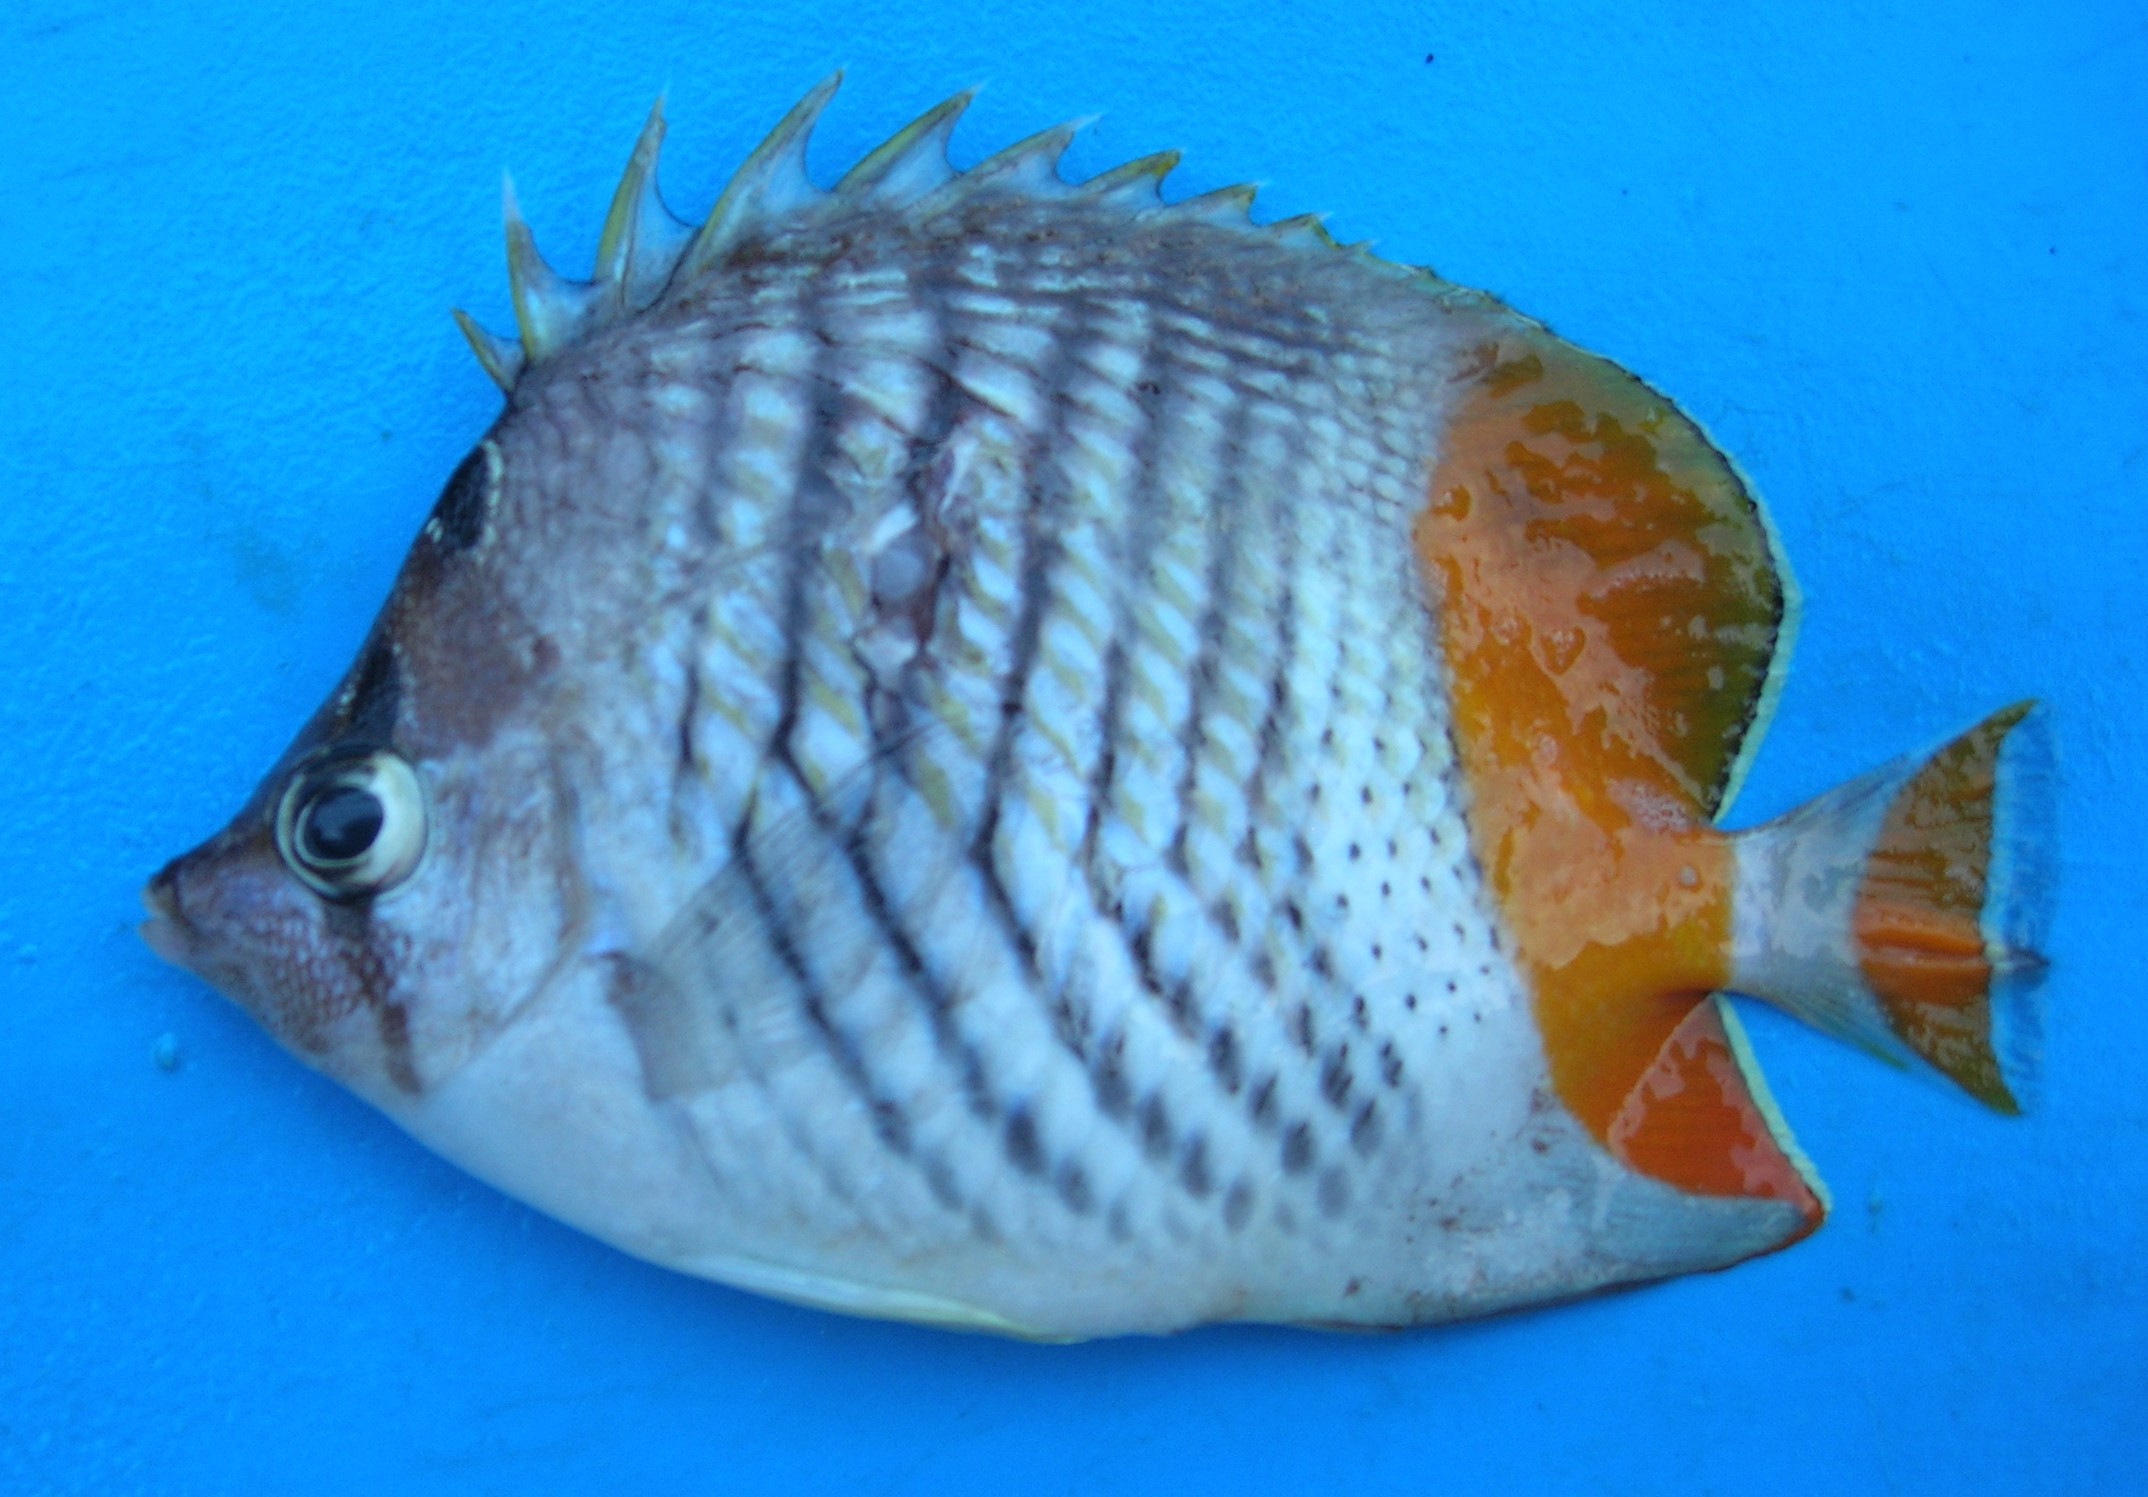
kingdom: Animalia
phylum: Chordata
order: Perciformes
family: Chaetodontidae
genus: Chaetodon
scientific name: Chaetodon madagaskariensis
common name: Madagascar butterflyfish
